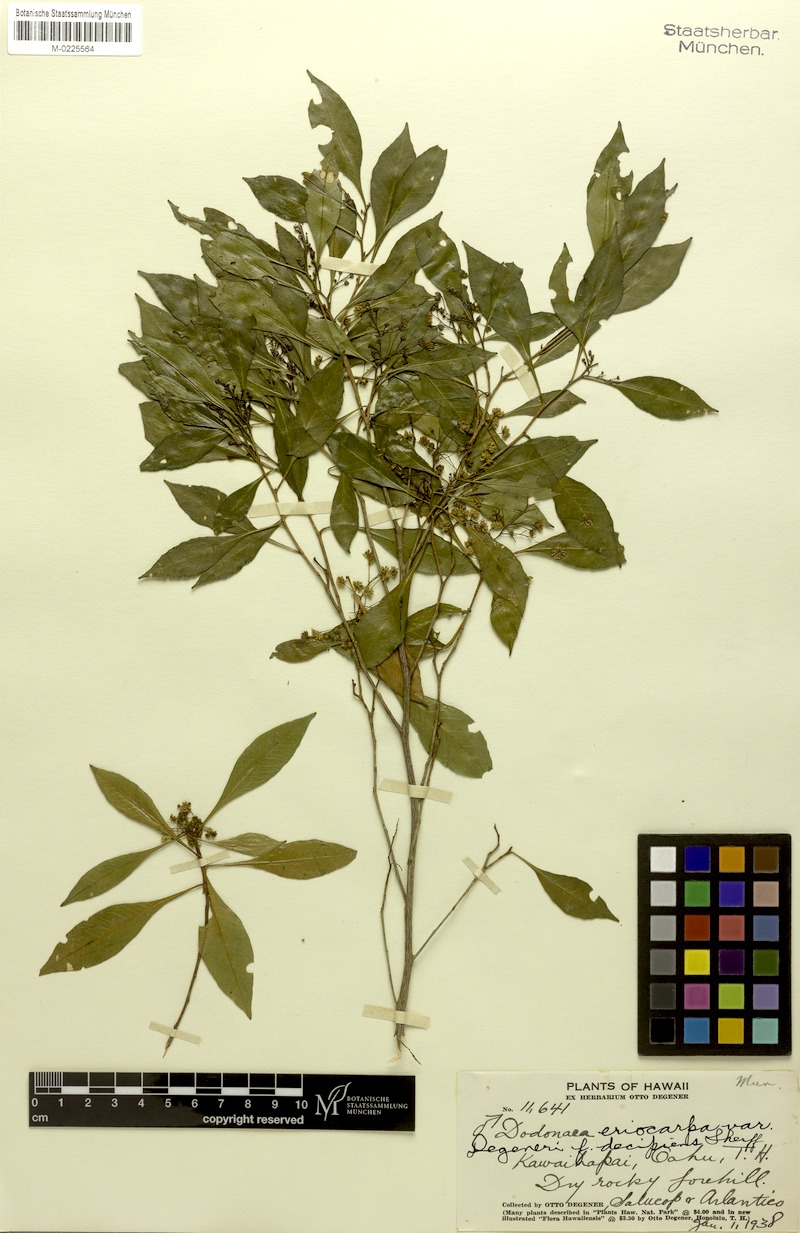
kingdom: Plantae
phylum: Tracheophyta
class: Magnoliopsida
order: Sapindales
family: Sapindaceae
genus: Dodonaea
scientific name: Dodonaea viscosa
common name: Hopbush
